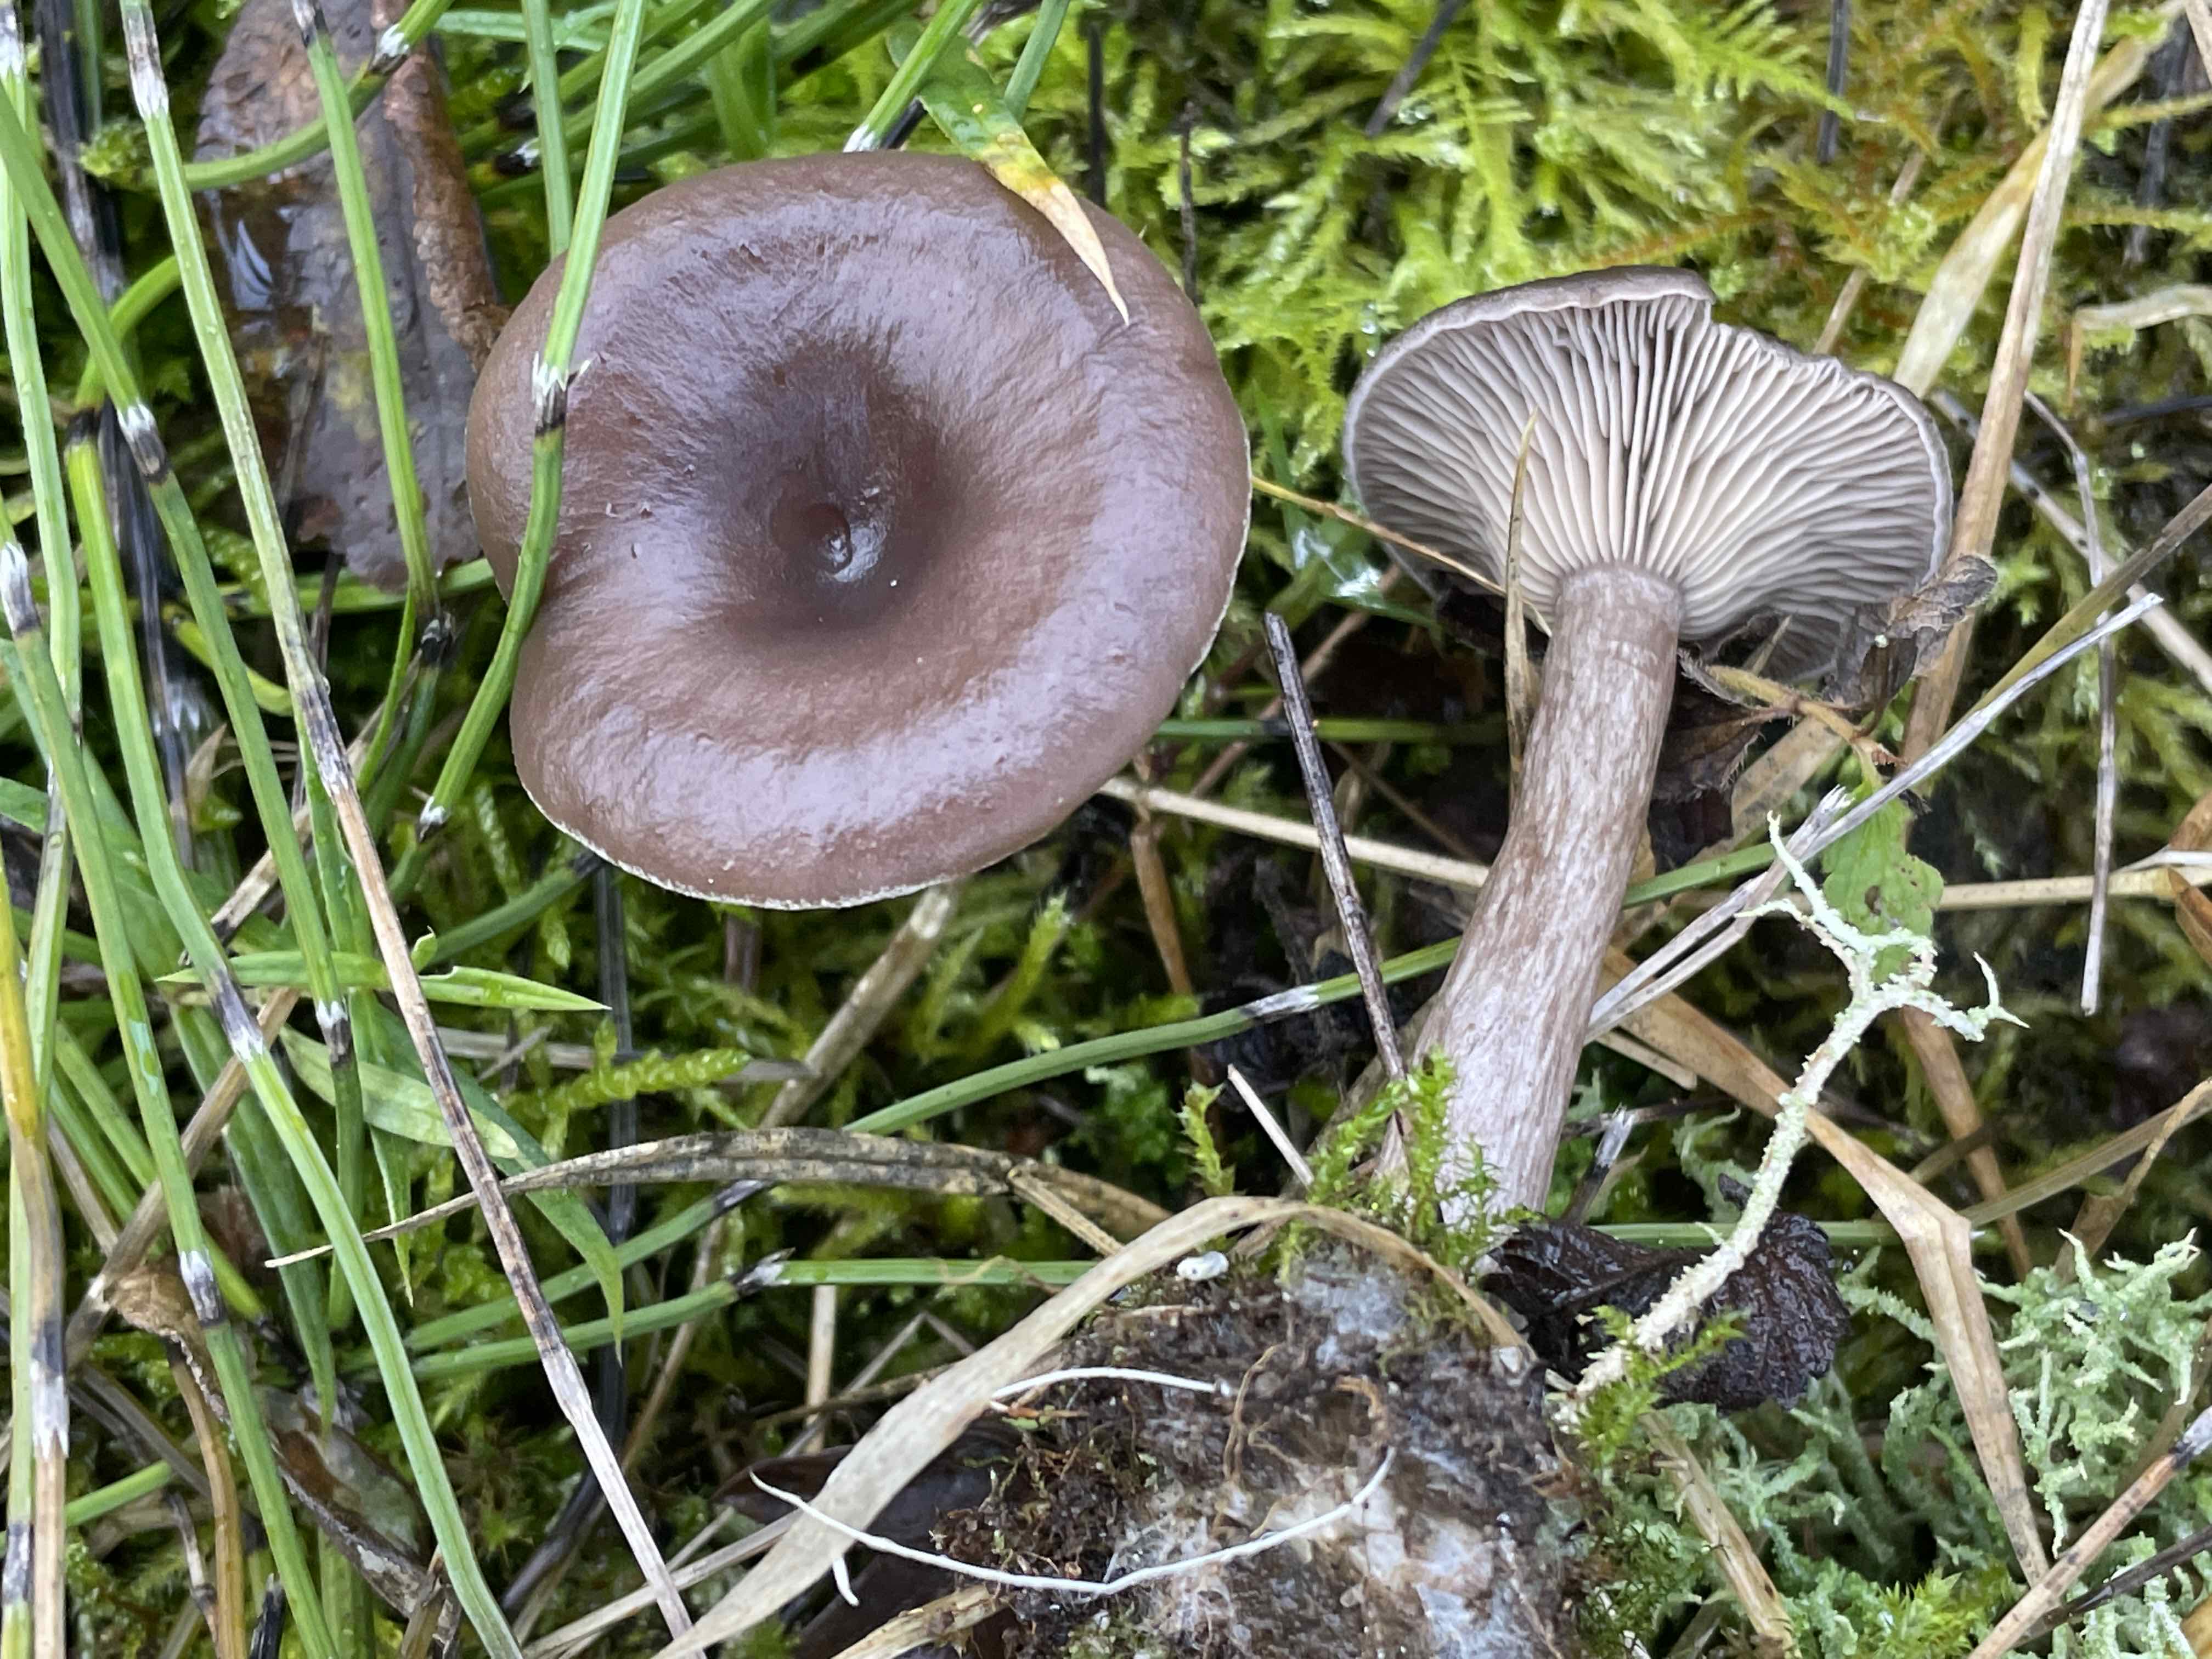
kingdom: Fungi
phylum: Basidiomycota
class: Agaricomycetes
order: Agaricales
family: Pseudoclitocybaceae
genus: Pseudoclitocybe
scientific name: Pseudoclitocybe expallens
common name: lille bægertragthat
